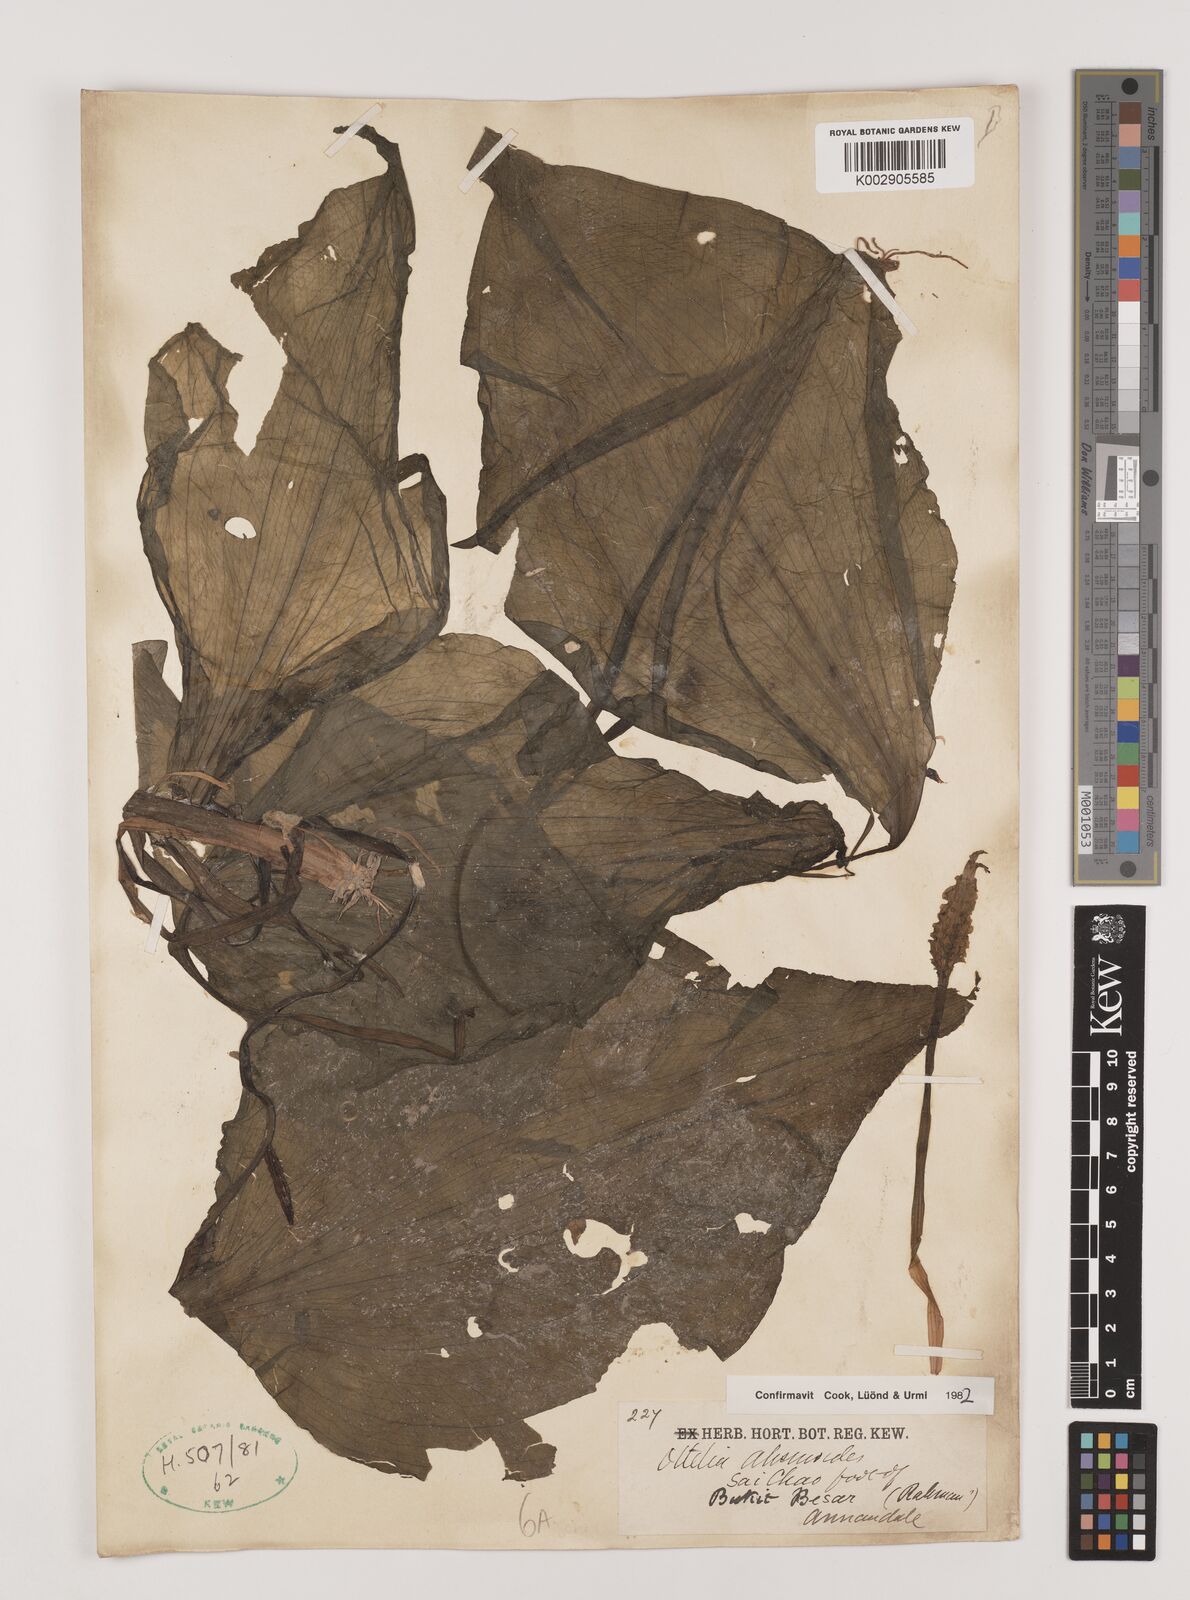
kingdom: Plantae
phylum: Tracheophyta
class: Liliopsida
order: Alismatales
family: Hydrocharitaceae
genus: Ottelia
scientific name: Ottelia alismoides
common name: Duck-lettuce
